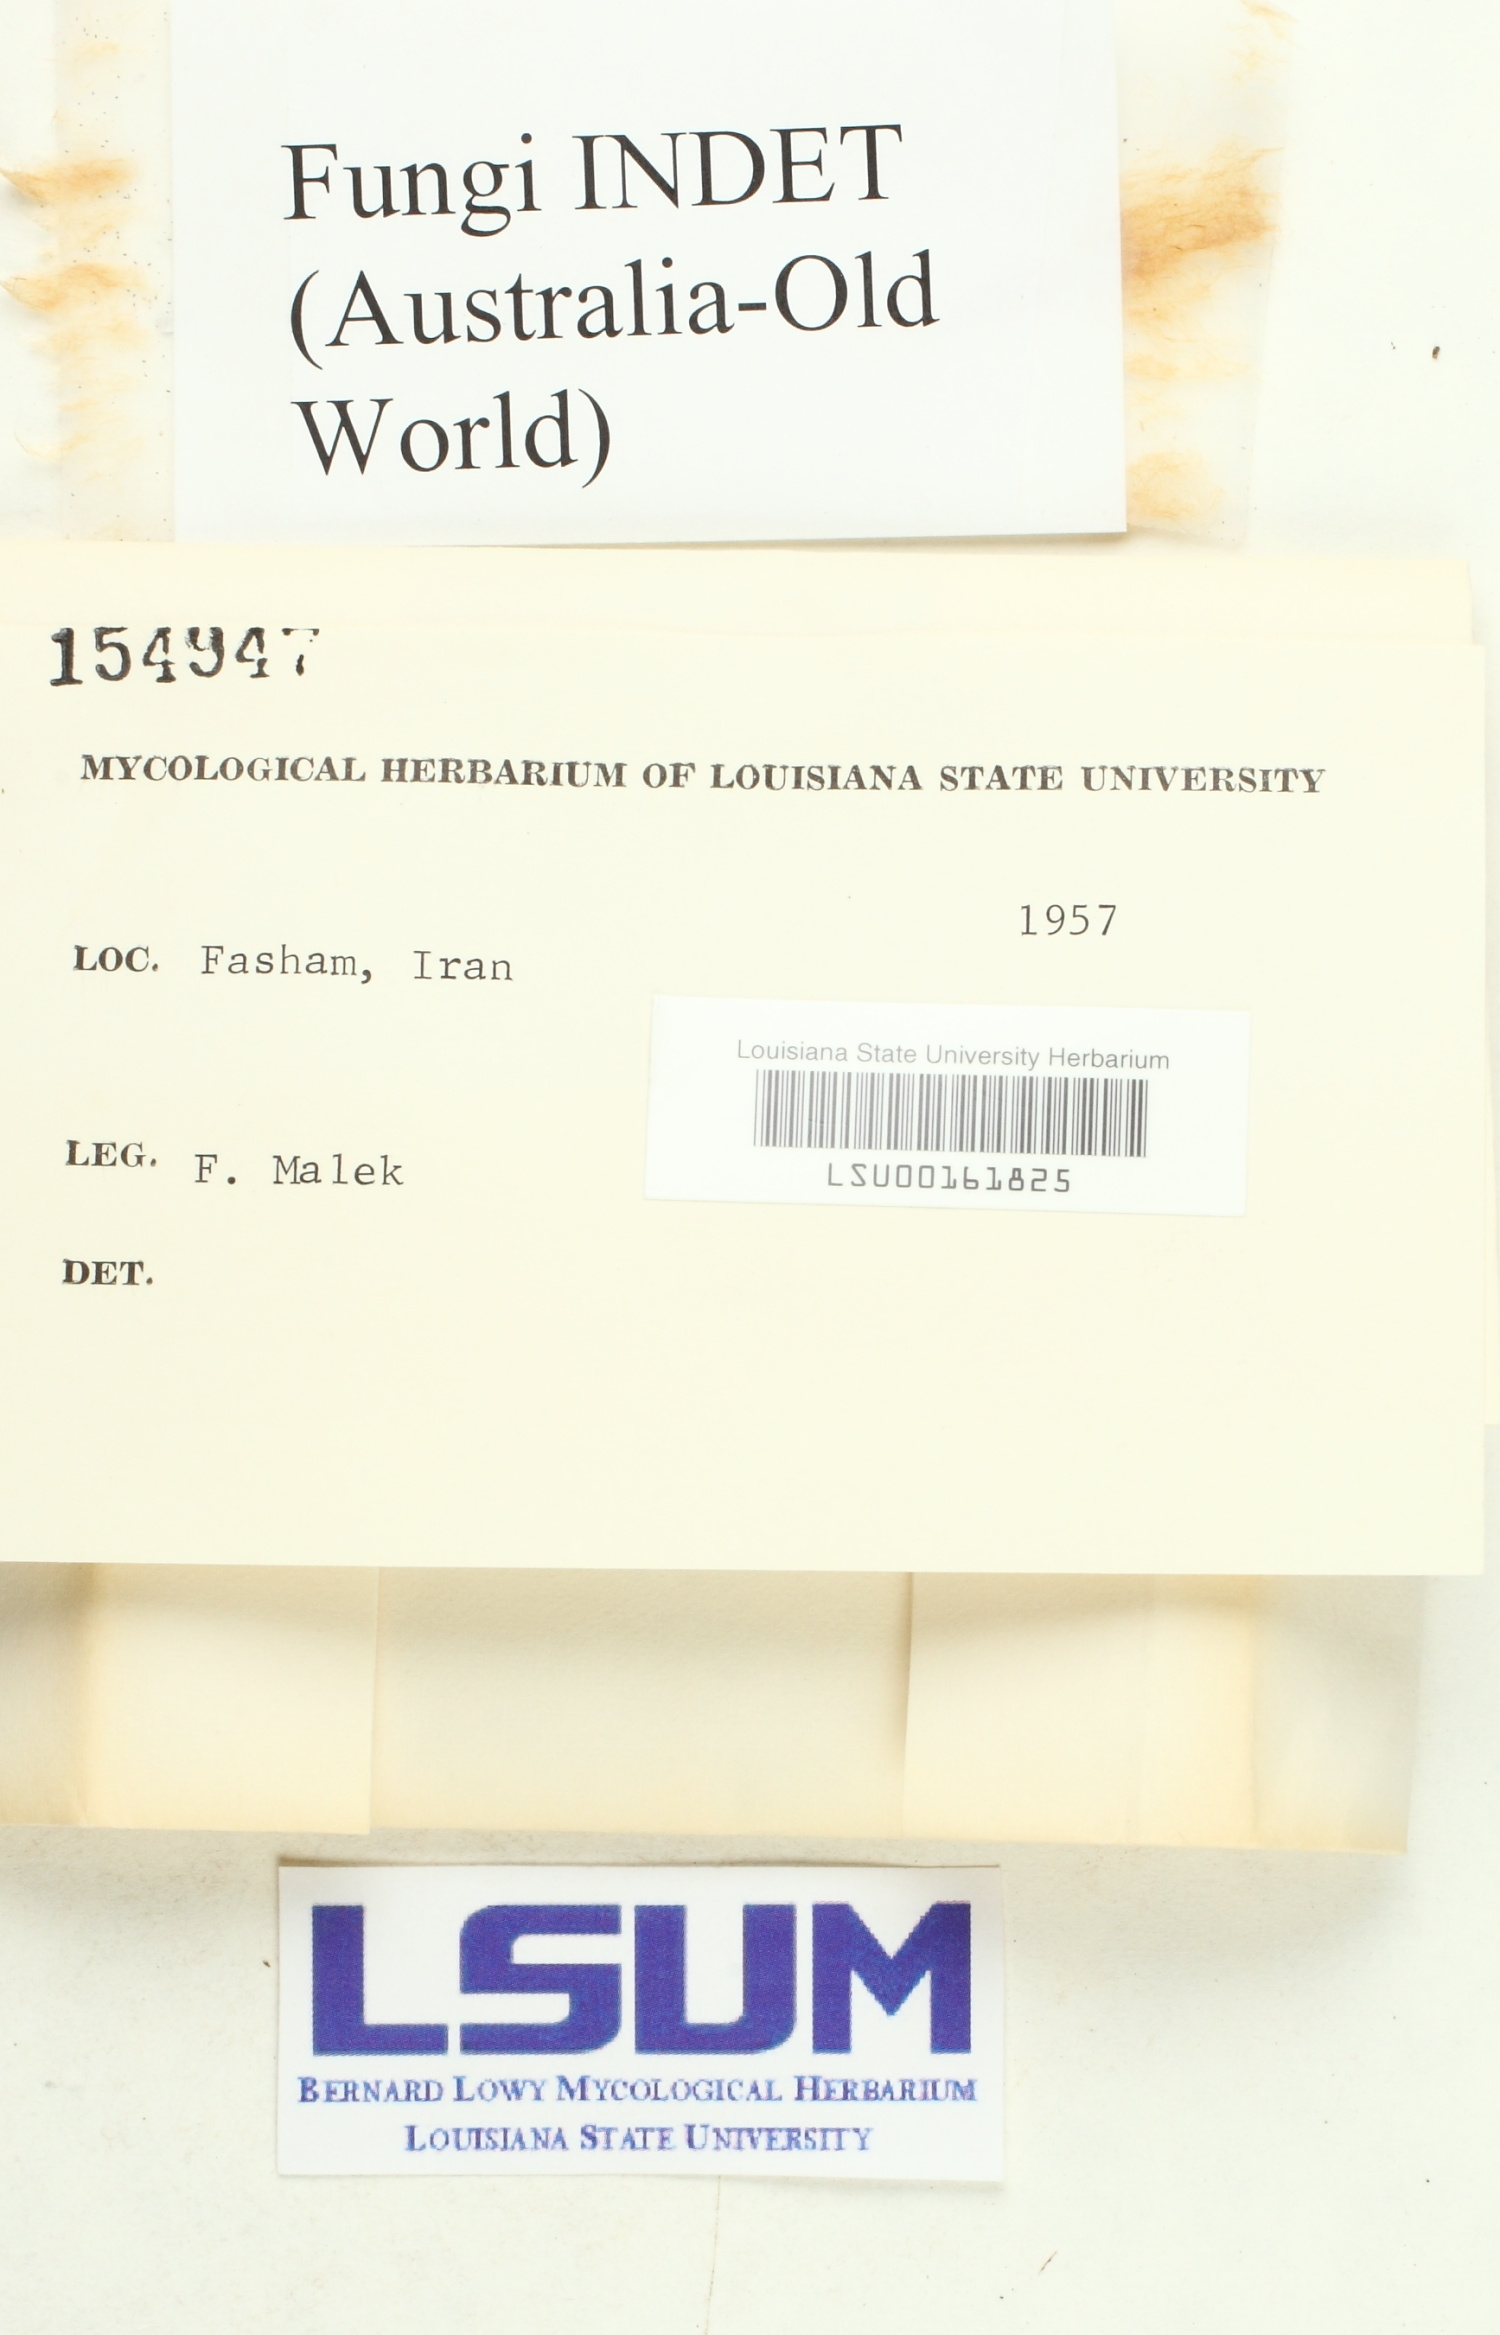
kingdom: Fungi
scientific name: Fungi
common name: Fungi
